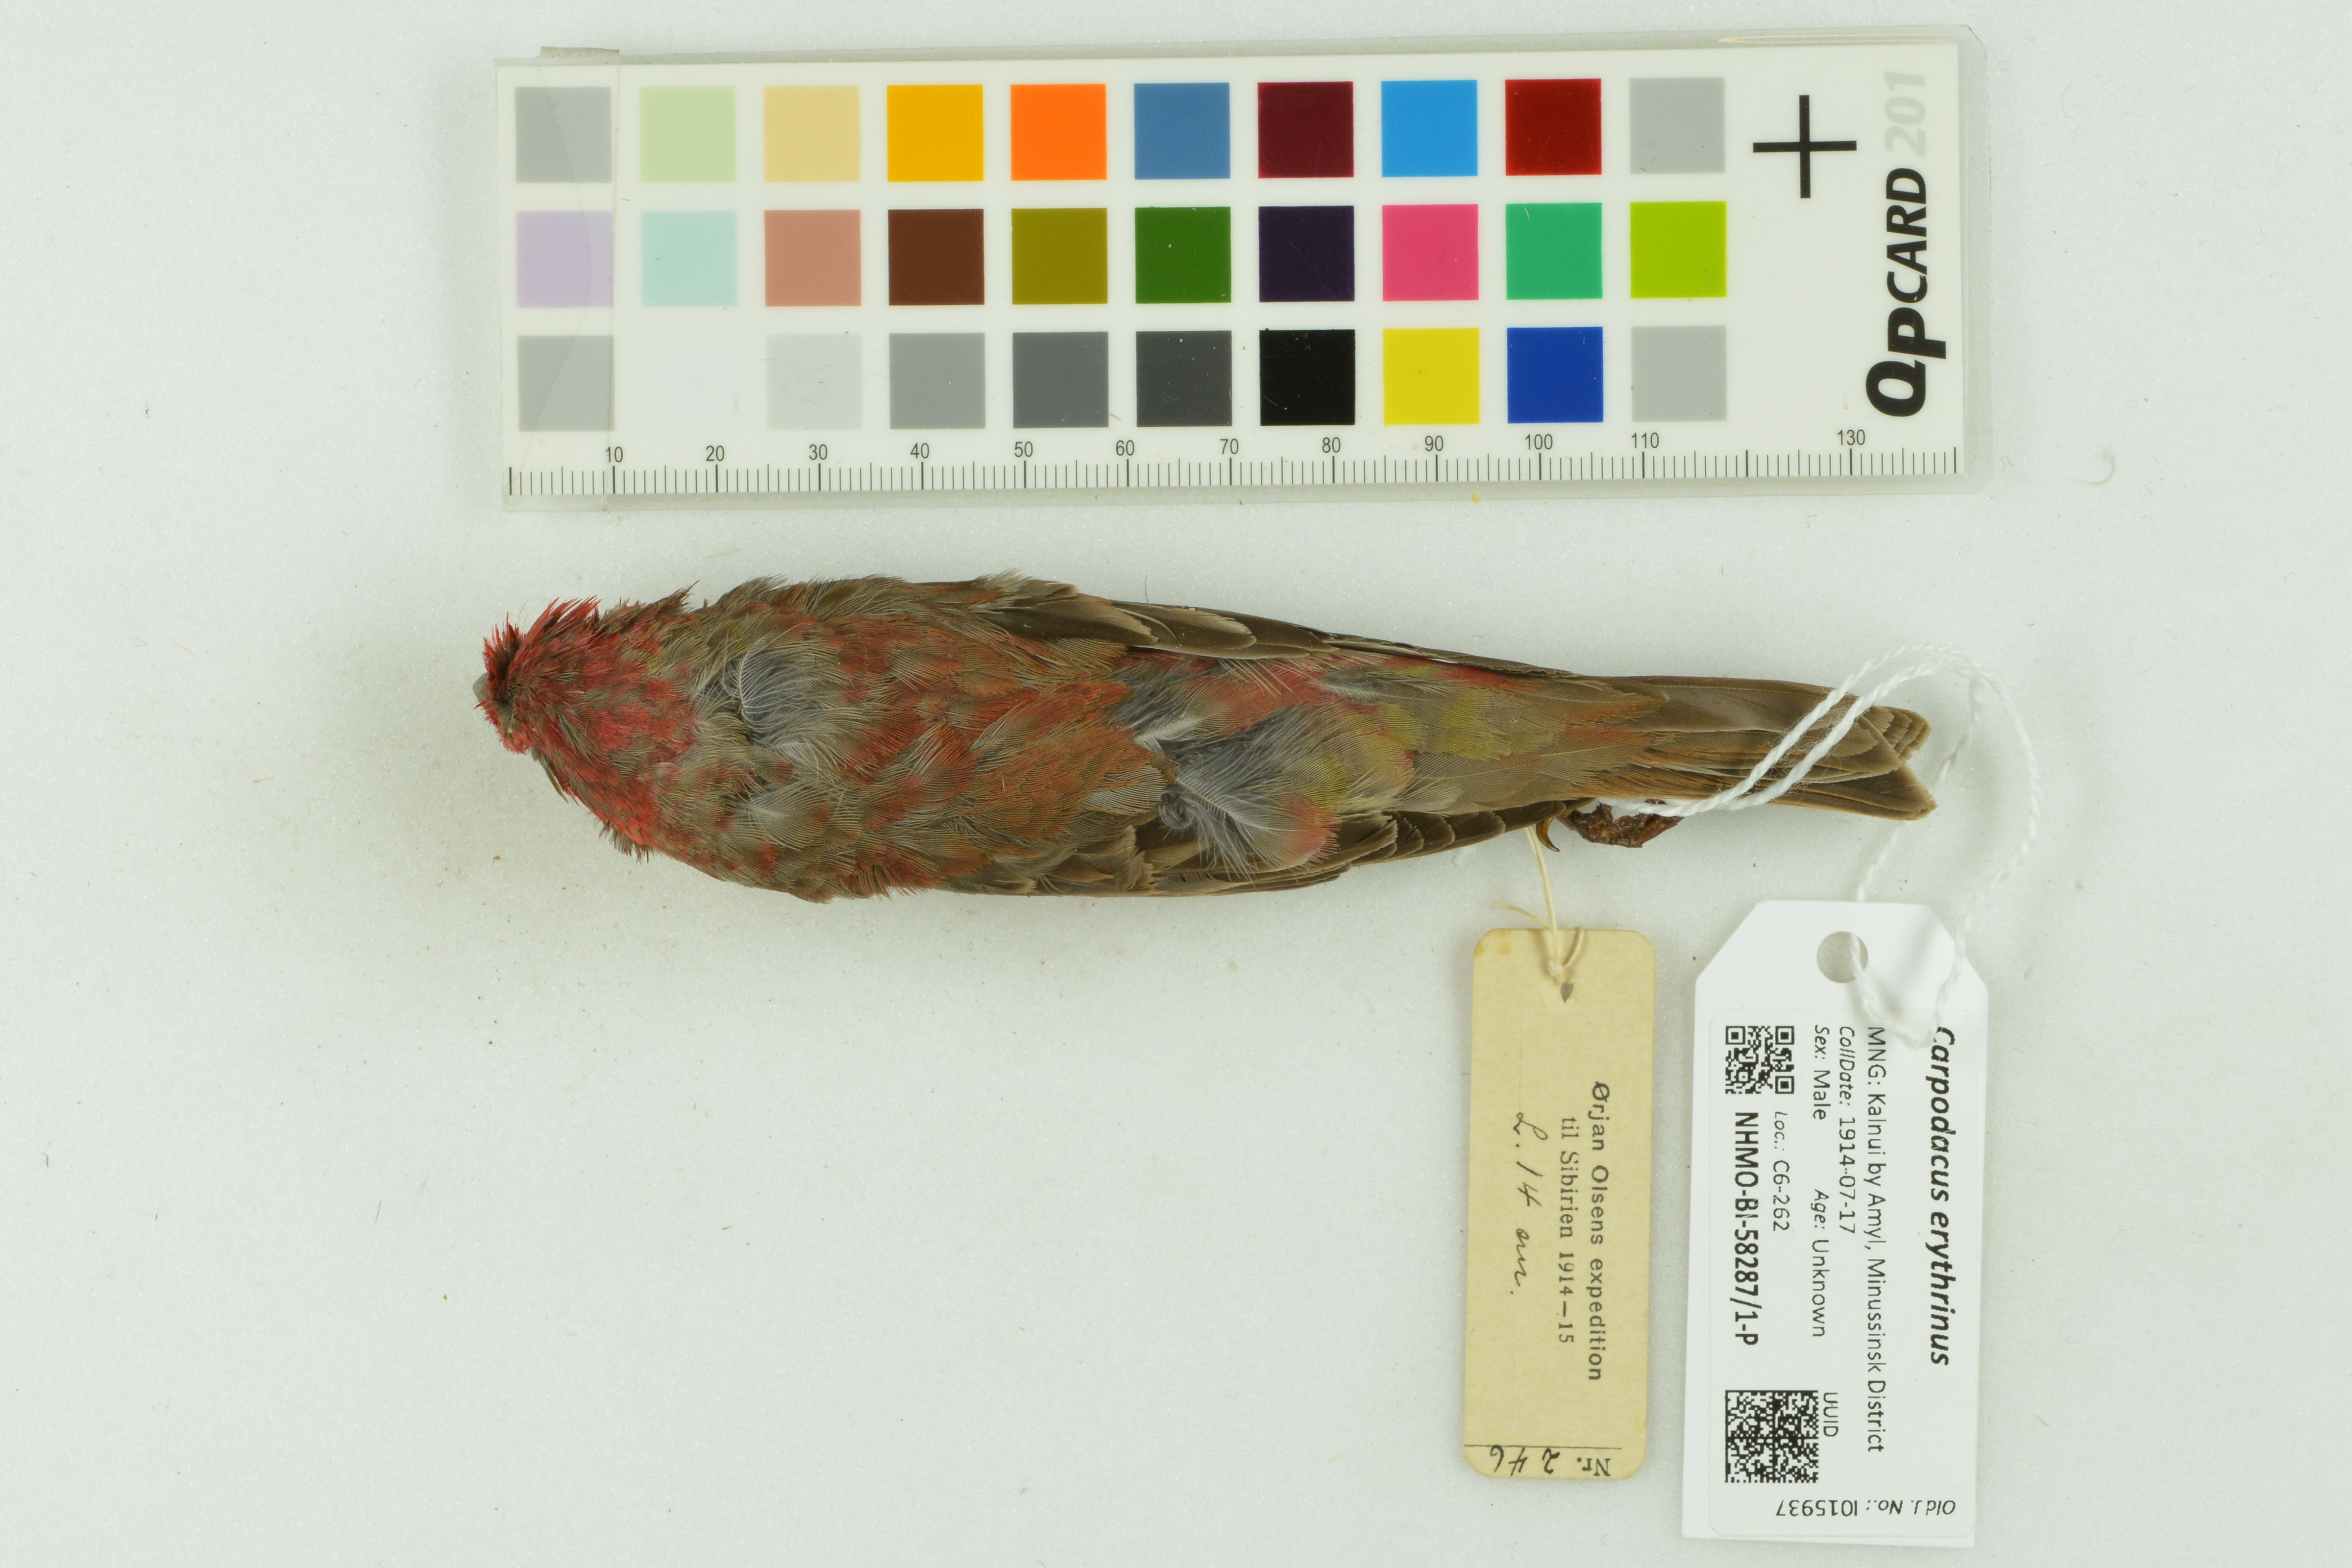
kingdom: Animalia
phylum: Chordata
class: Aves
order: Passeriformes
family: Fringillidae
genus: Carpodacus
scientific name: Carpodacus erythrinus
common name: Common rosefinch
